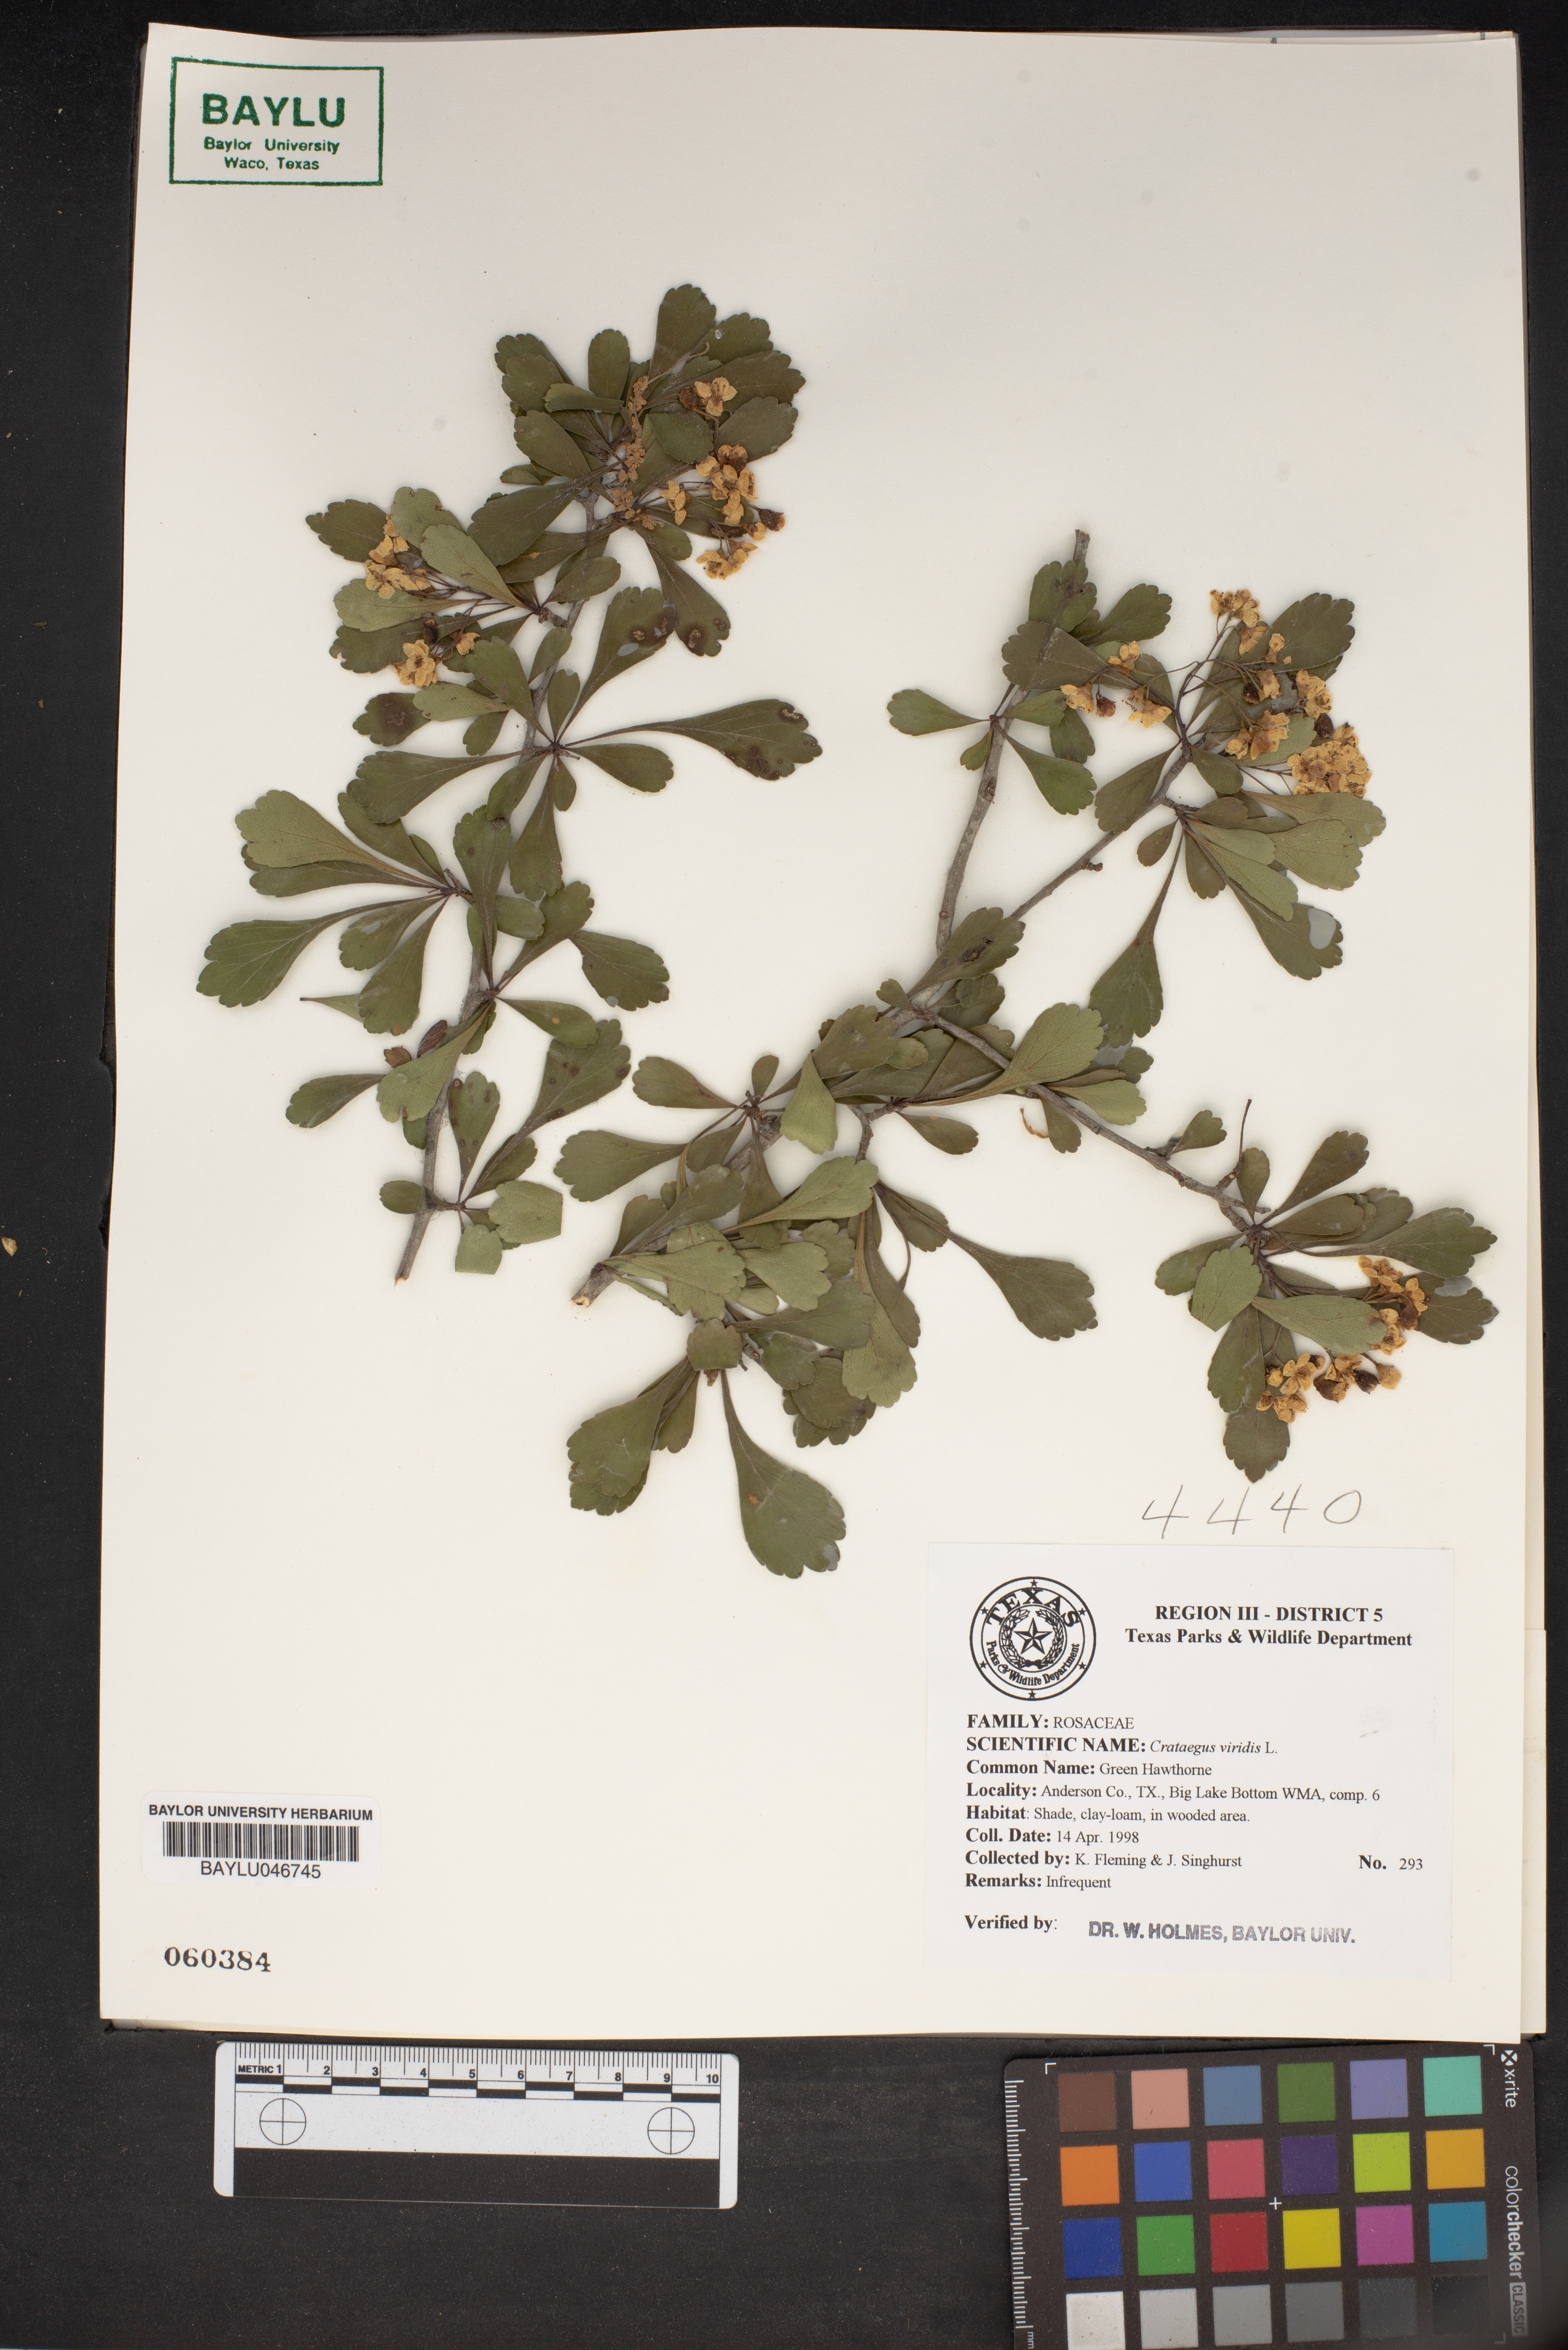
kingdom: Plantae
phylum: Tracheophyta
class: Magnoliopsida
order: Rosales
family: Rosaceae
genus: Crataegus
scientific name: Crataegus viridis
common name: Southernthorn
